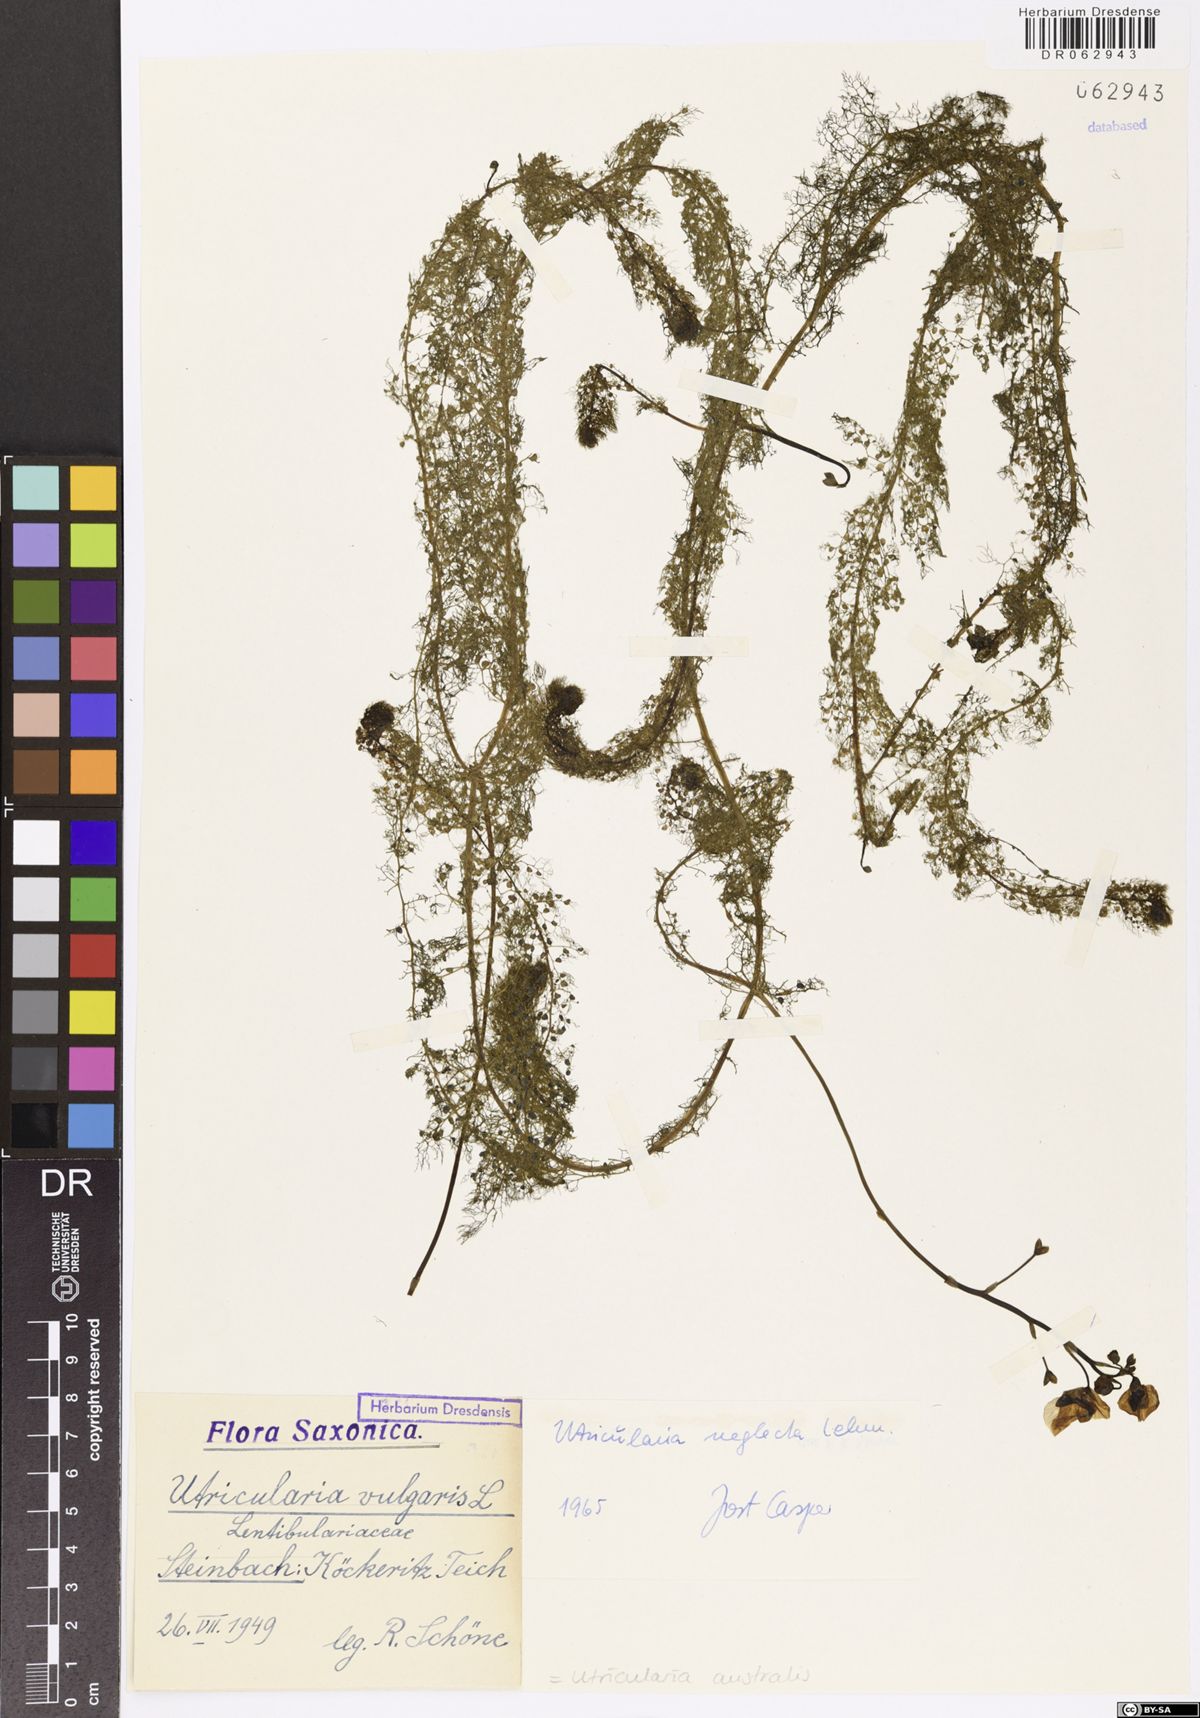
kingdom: Plantae
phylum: Tracheophyta
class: Magnoliopsida
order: Lamiales
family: Lentibulariaceae
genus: Utricularia
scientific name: Utricularia australis
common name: Bladderwort
